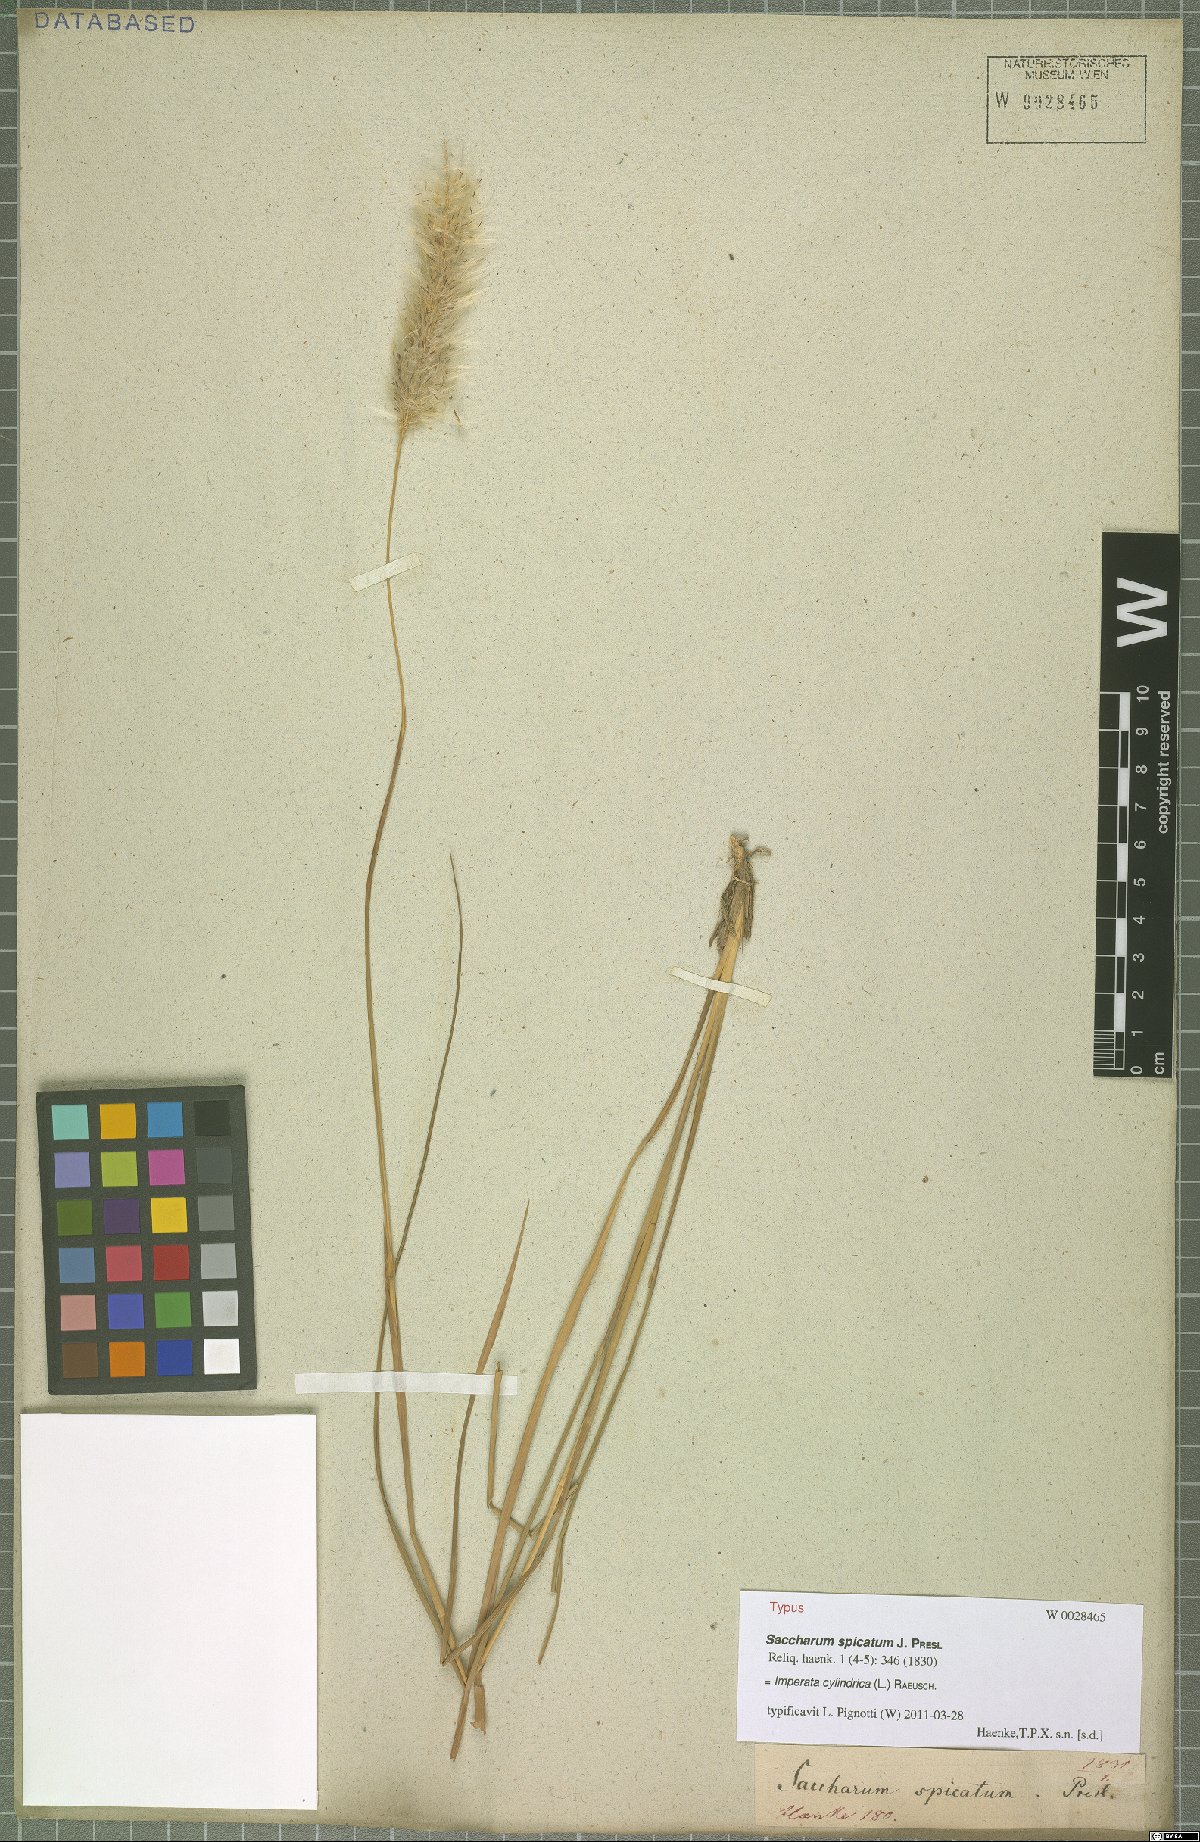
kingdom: Plantae
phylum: Tracheophyta
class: Liliopsida
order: Poales
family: Poaceae
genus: Imperata
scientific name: Imperata cylindrica
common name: Cogongrass
